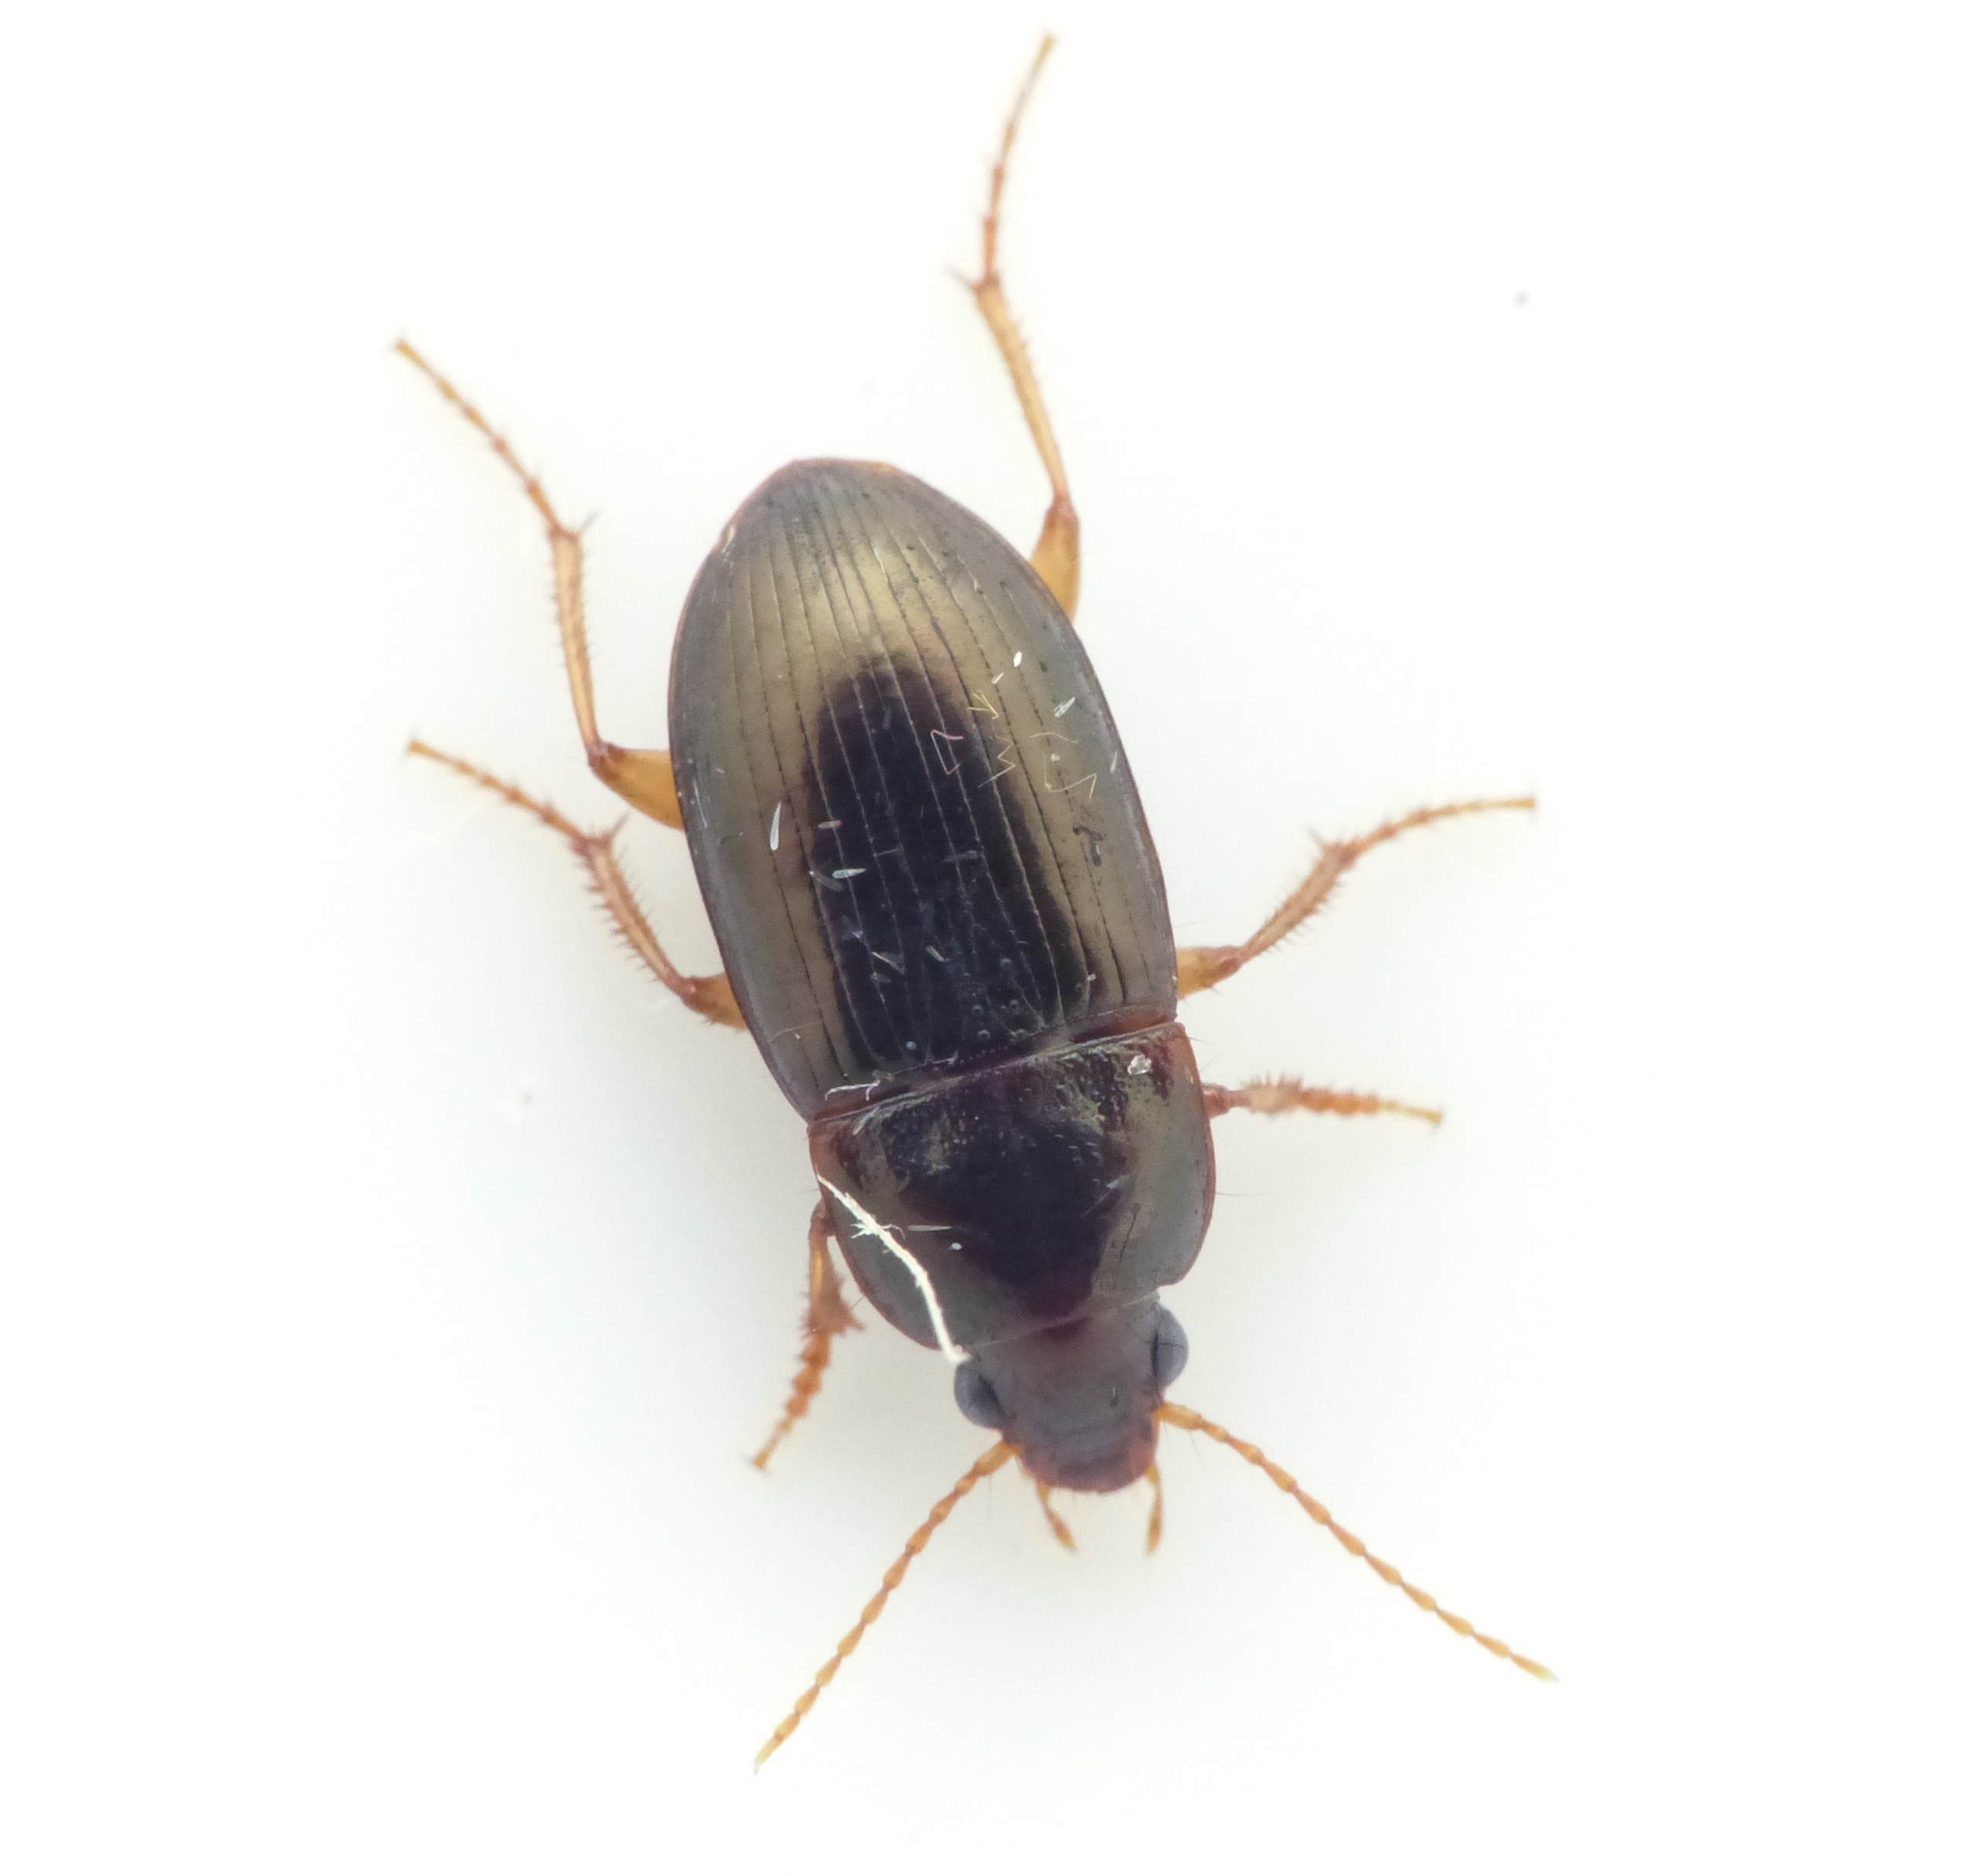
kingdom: Animalia
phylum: Arthropoda
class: Insecta
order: Coleoptera
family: Carabidae
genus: Amara
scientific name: Amara bifrons
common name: Lys ovalløber
